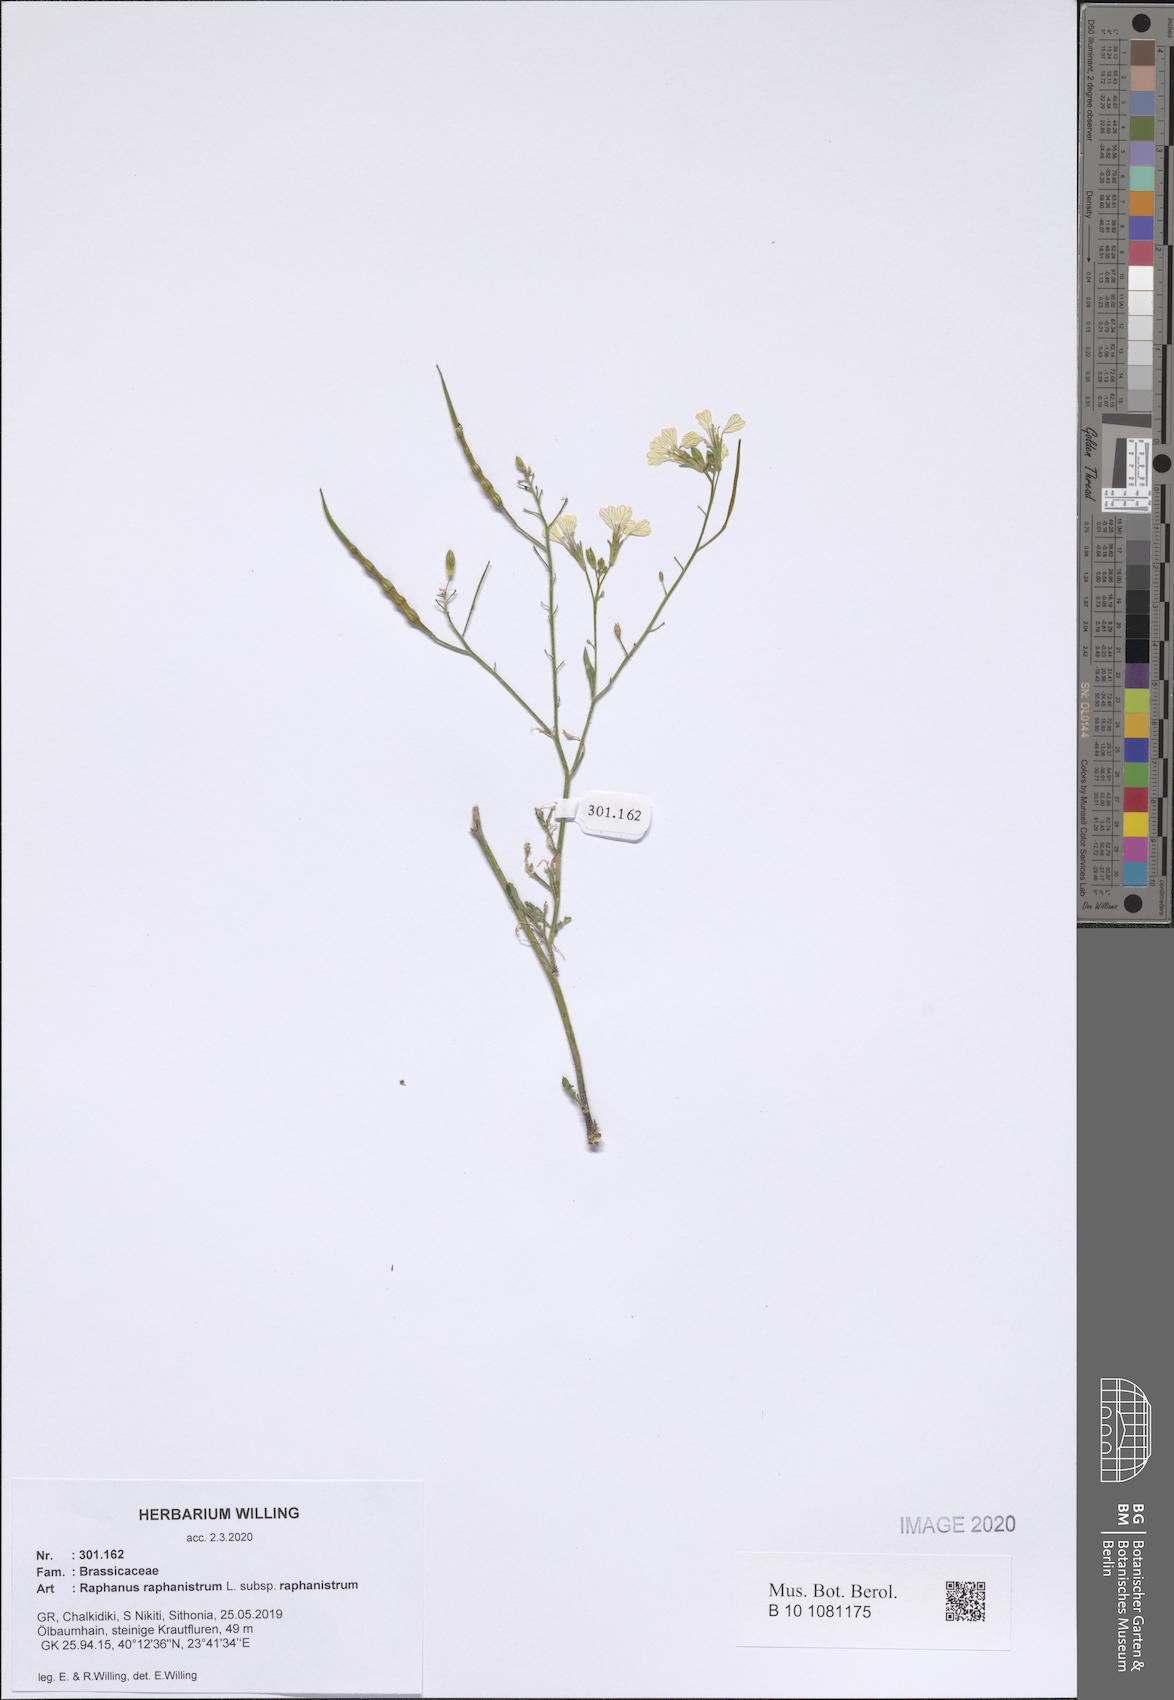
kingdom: Plantae
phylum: Tracheophyta
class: Magnoliopsida
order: Brassicales
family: Brassicaceae
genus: Raphanus
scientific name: Raphanus raphanistrum
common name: Wild radish
